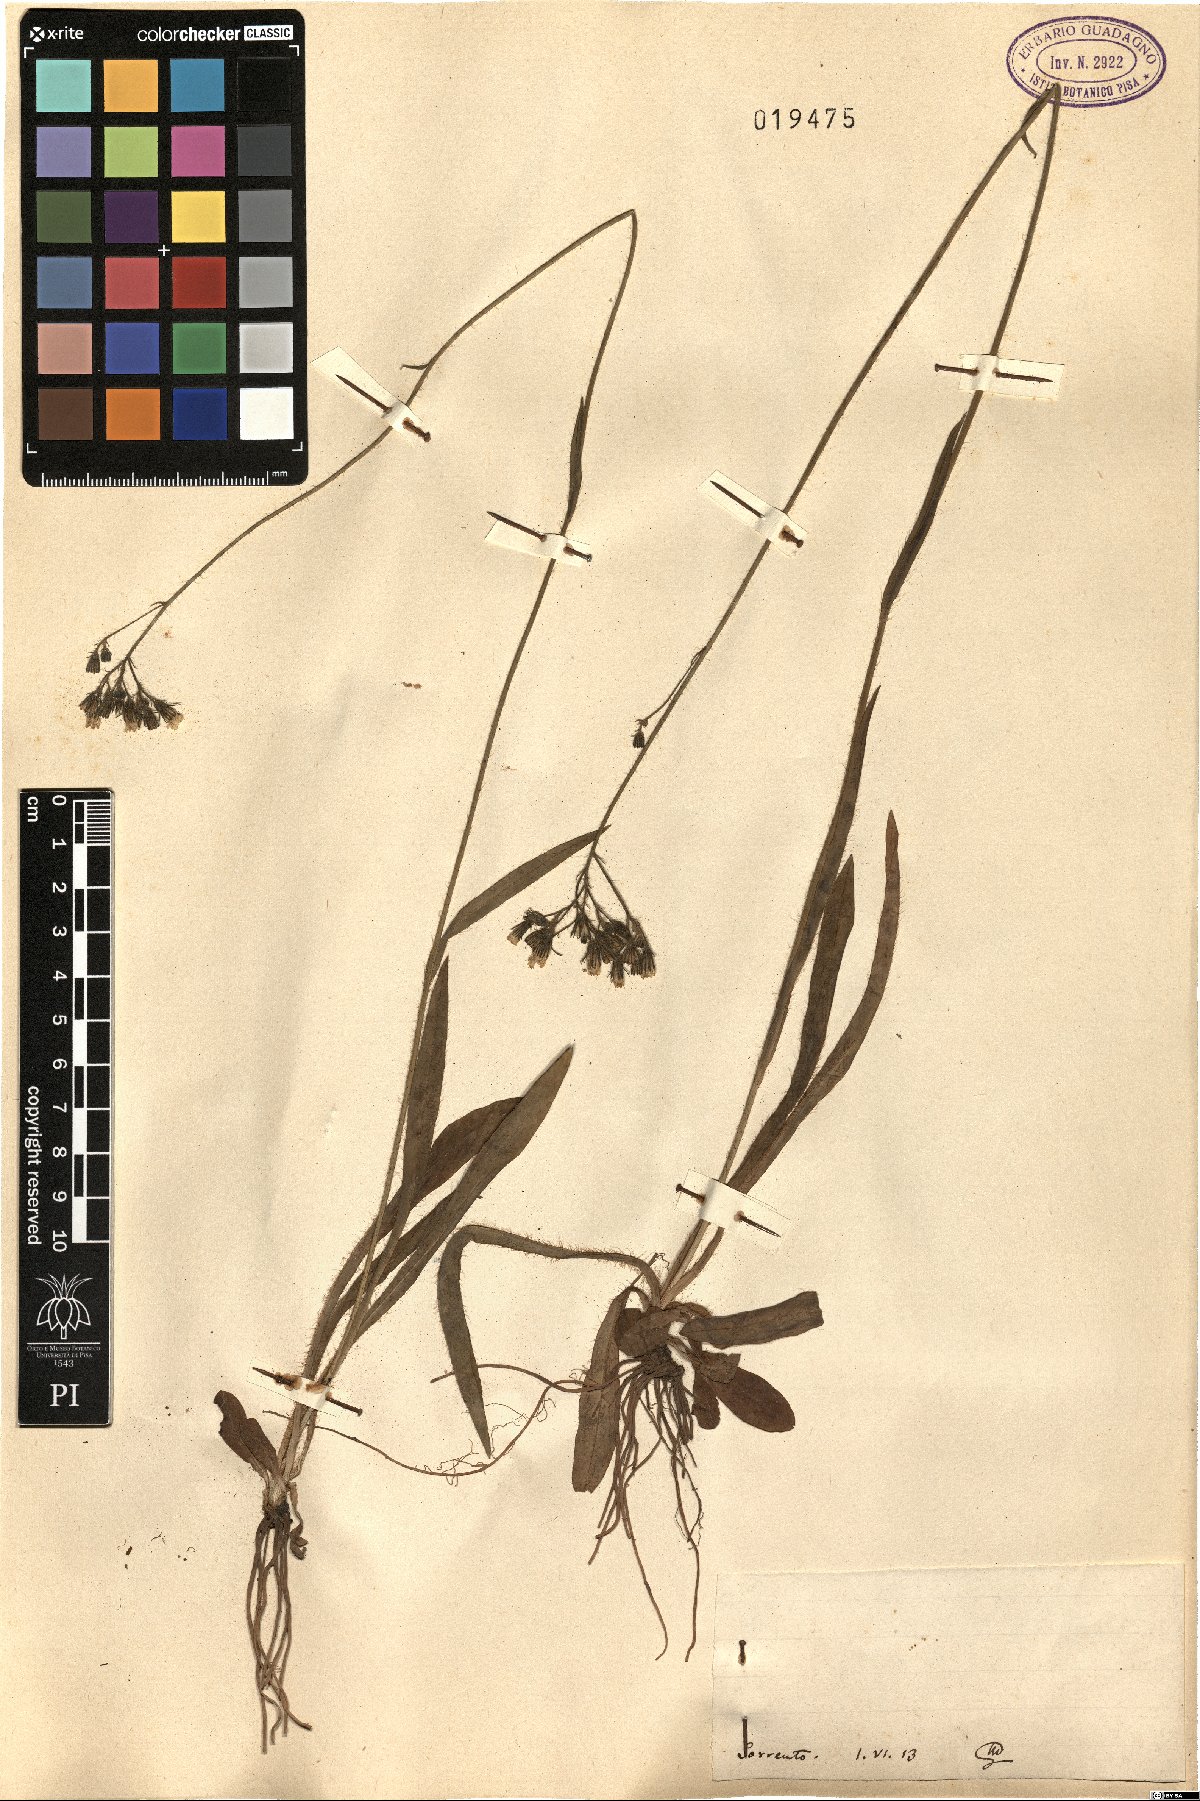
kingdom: Plantae
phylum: Tracheophyta
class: Magnoliopsida
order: Asterales
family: Asteraceae
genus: Hieracium
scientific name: Hieracium
